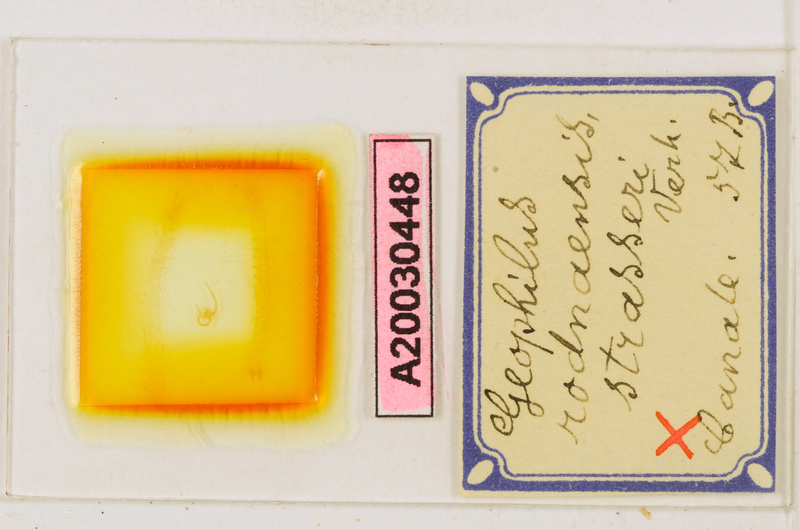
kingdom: Animalia
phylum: Arthropoda
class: Chilopoda
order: Geophilomorpha
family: Geophilidae
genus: Clinopodes
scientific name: Clinopodes trebevicensis
